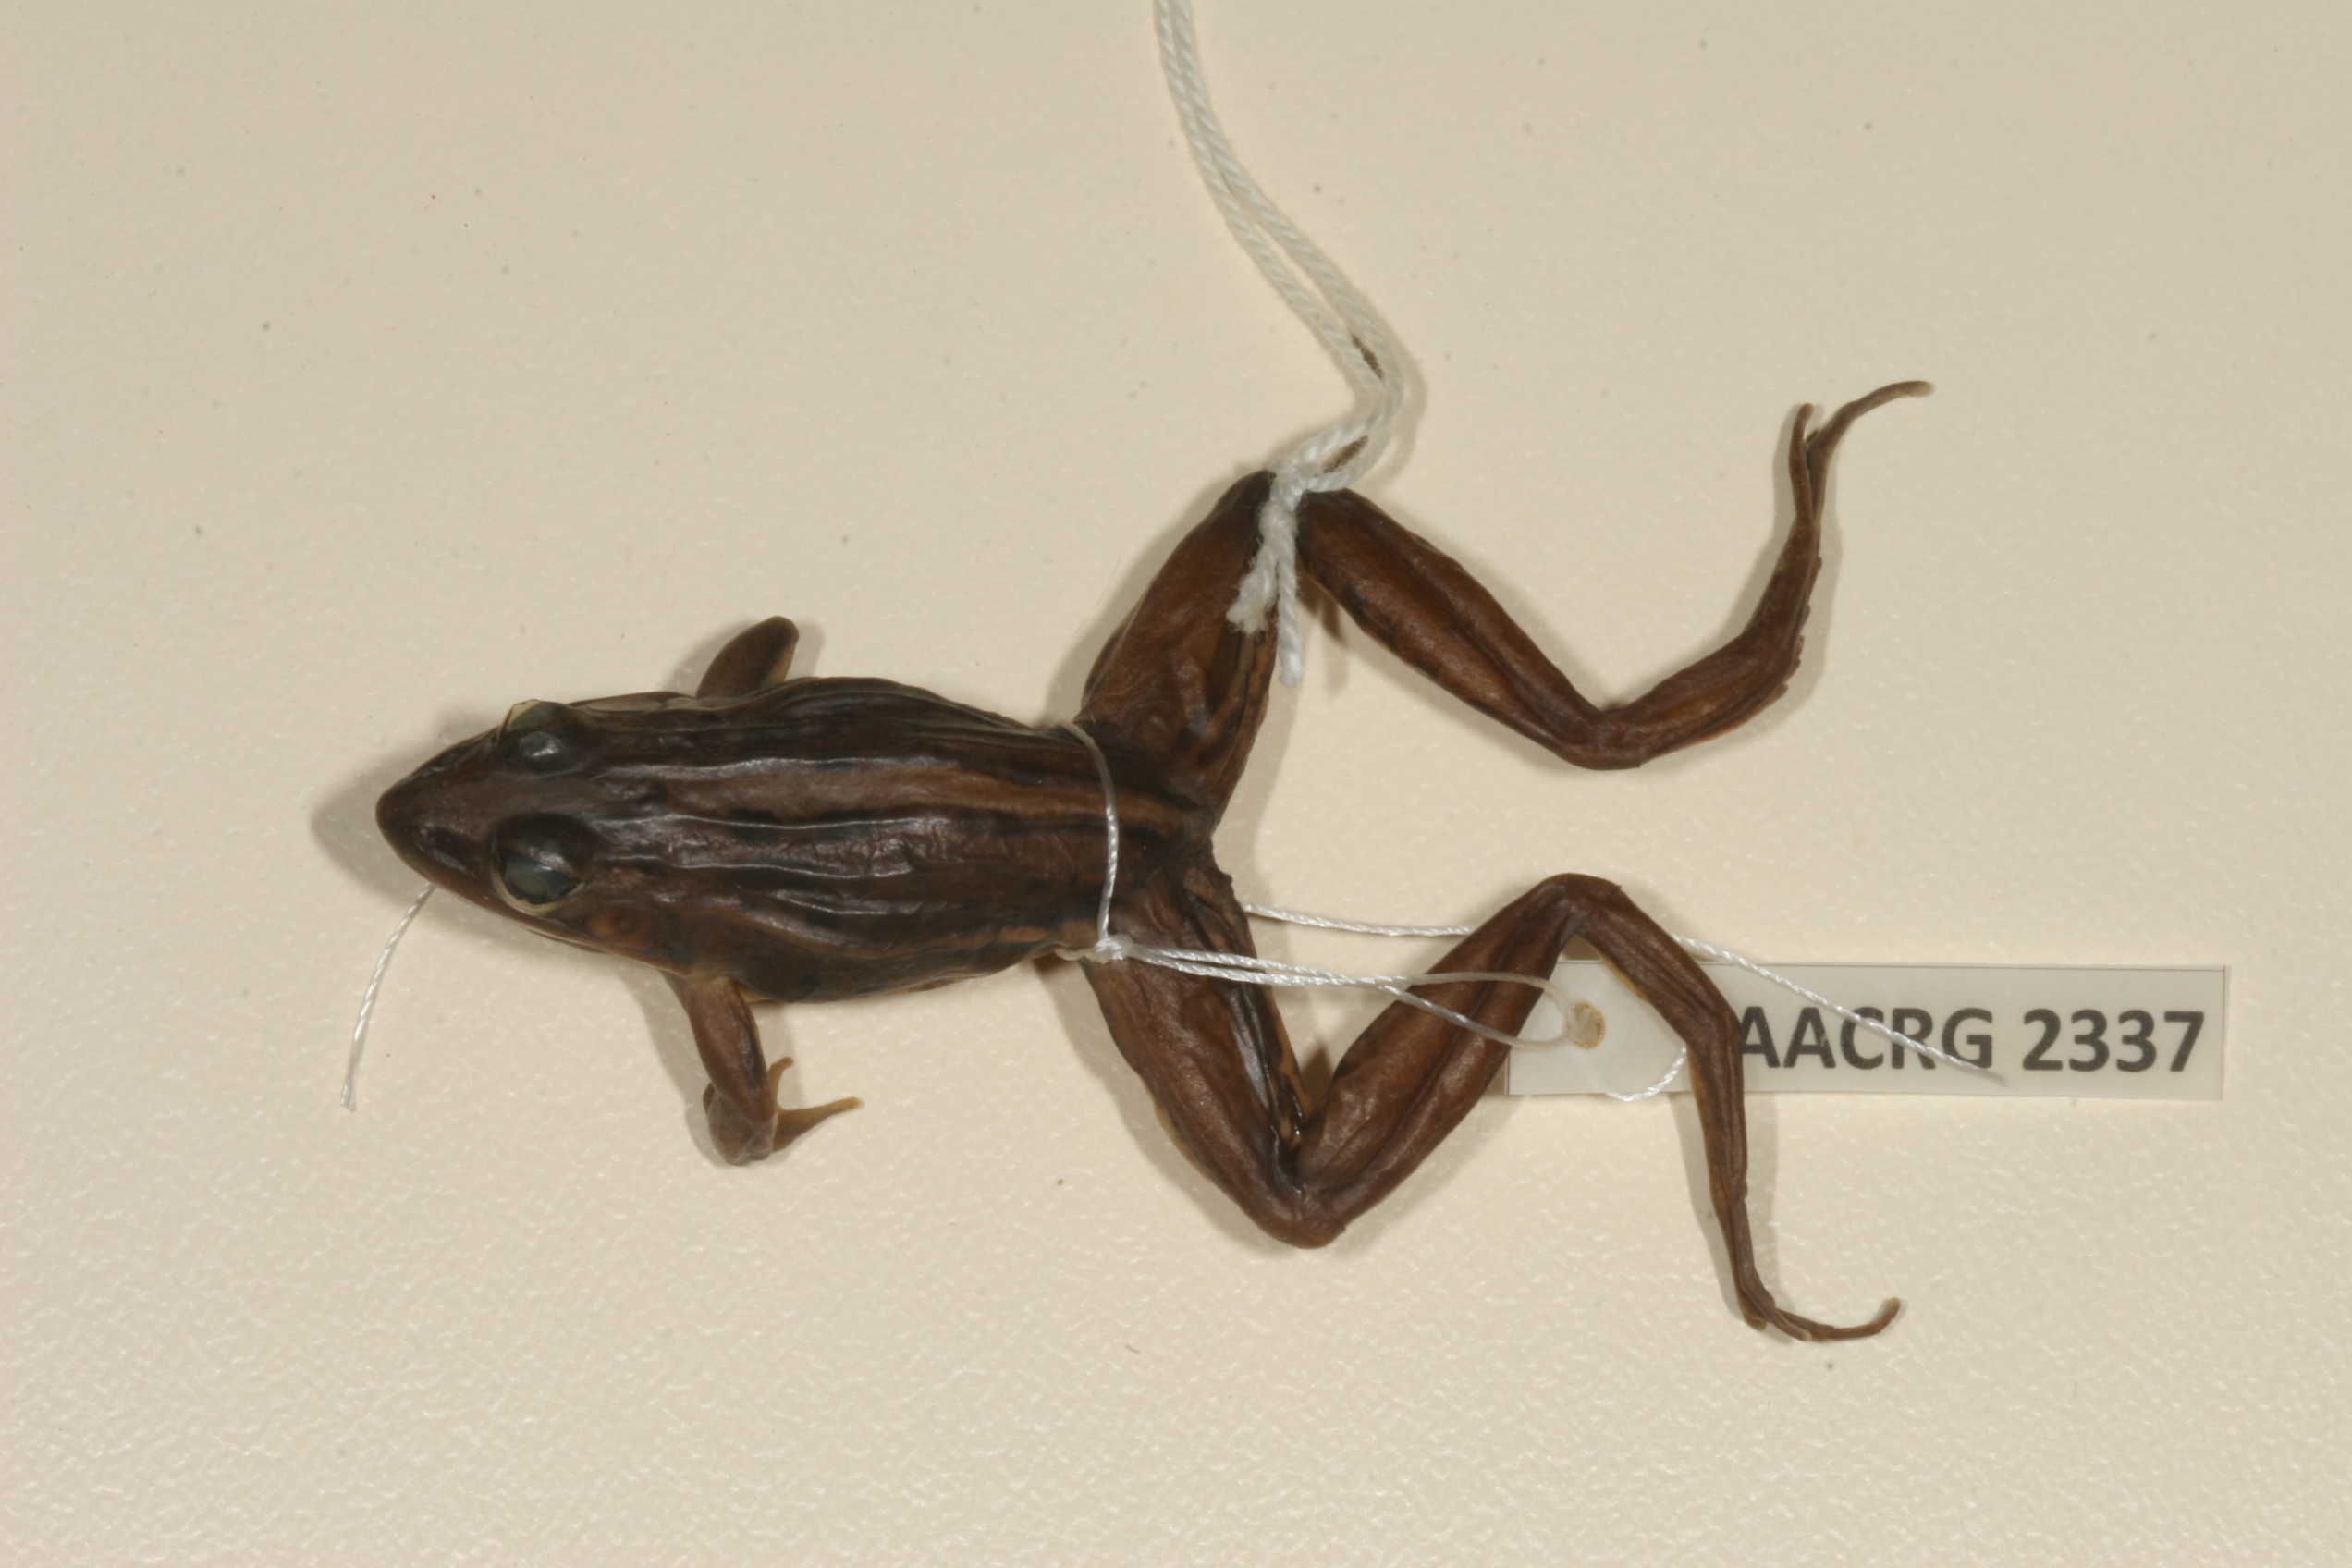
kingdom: Animalia
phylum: Chordata
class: Amphibia
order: Anura
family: Ptychadenidae
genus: Ptychadena
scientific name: Ptychadena mascareniensis
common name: Mascarene grass frog
